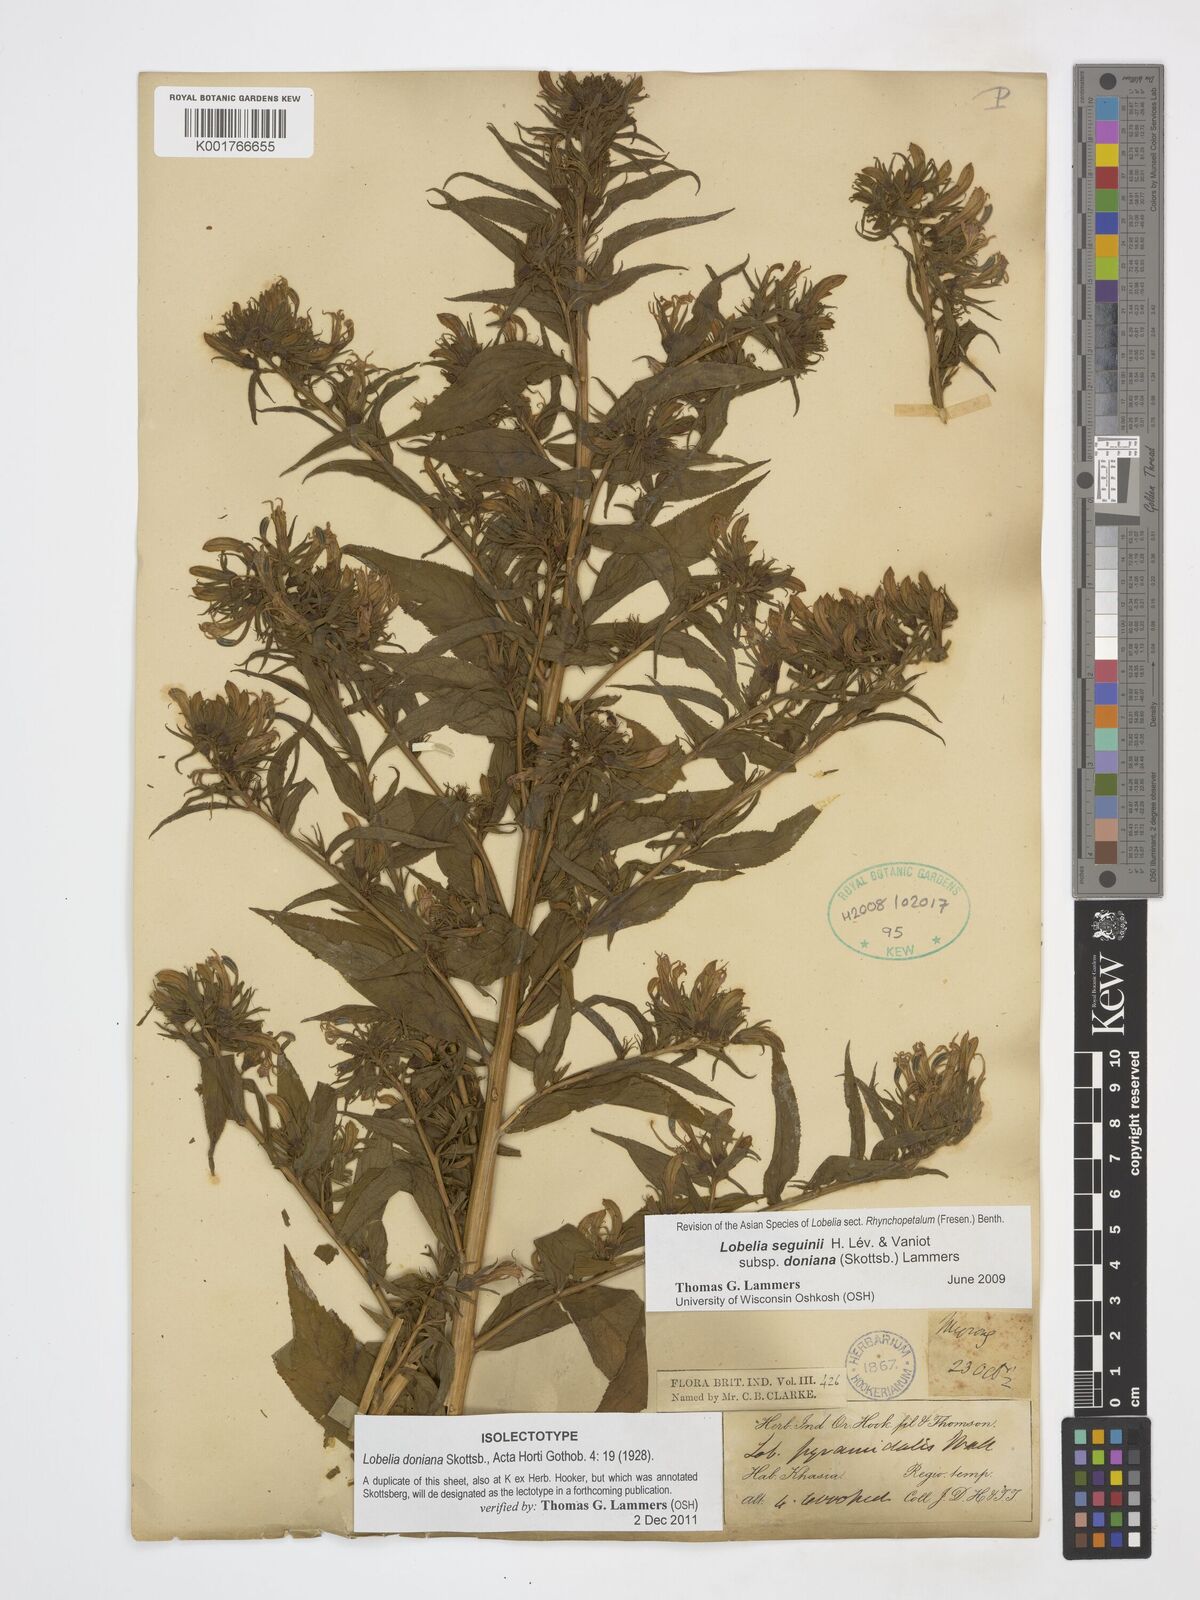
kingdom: Plantae
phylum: Tracheophyta
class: Magnoliopsida
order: Asterales
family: Campanulaceae
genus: Lobelia
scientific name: Lobelia nicotianifolia
